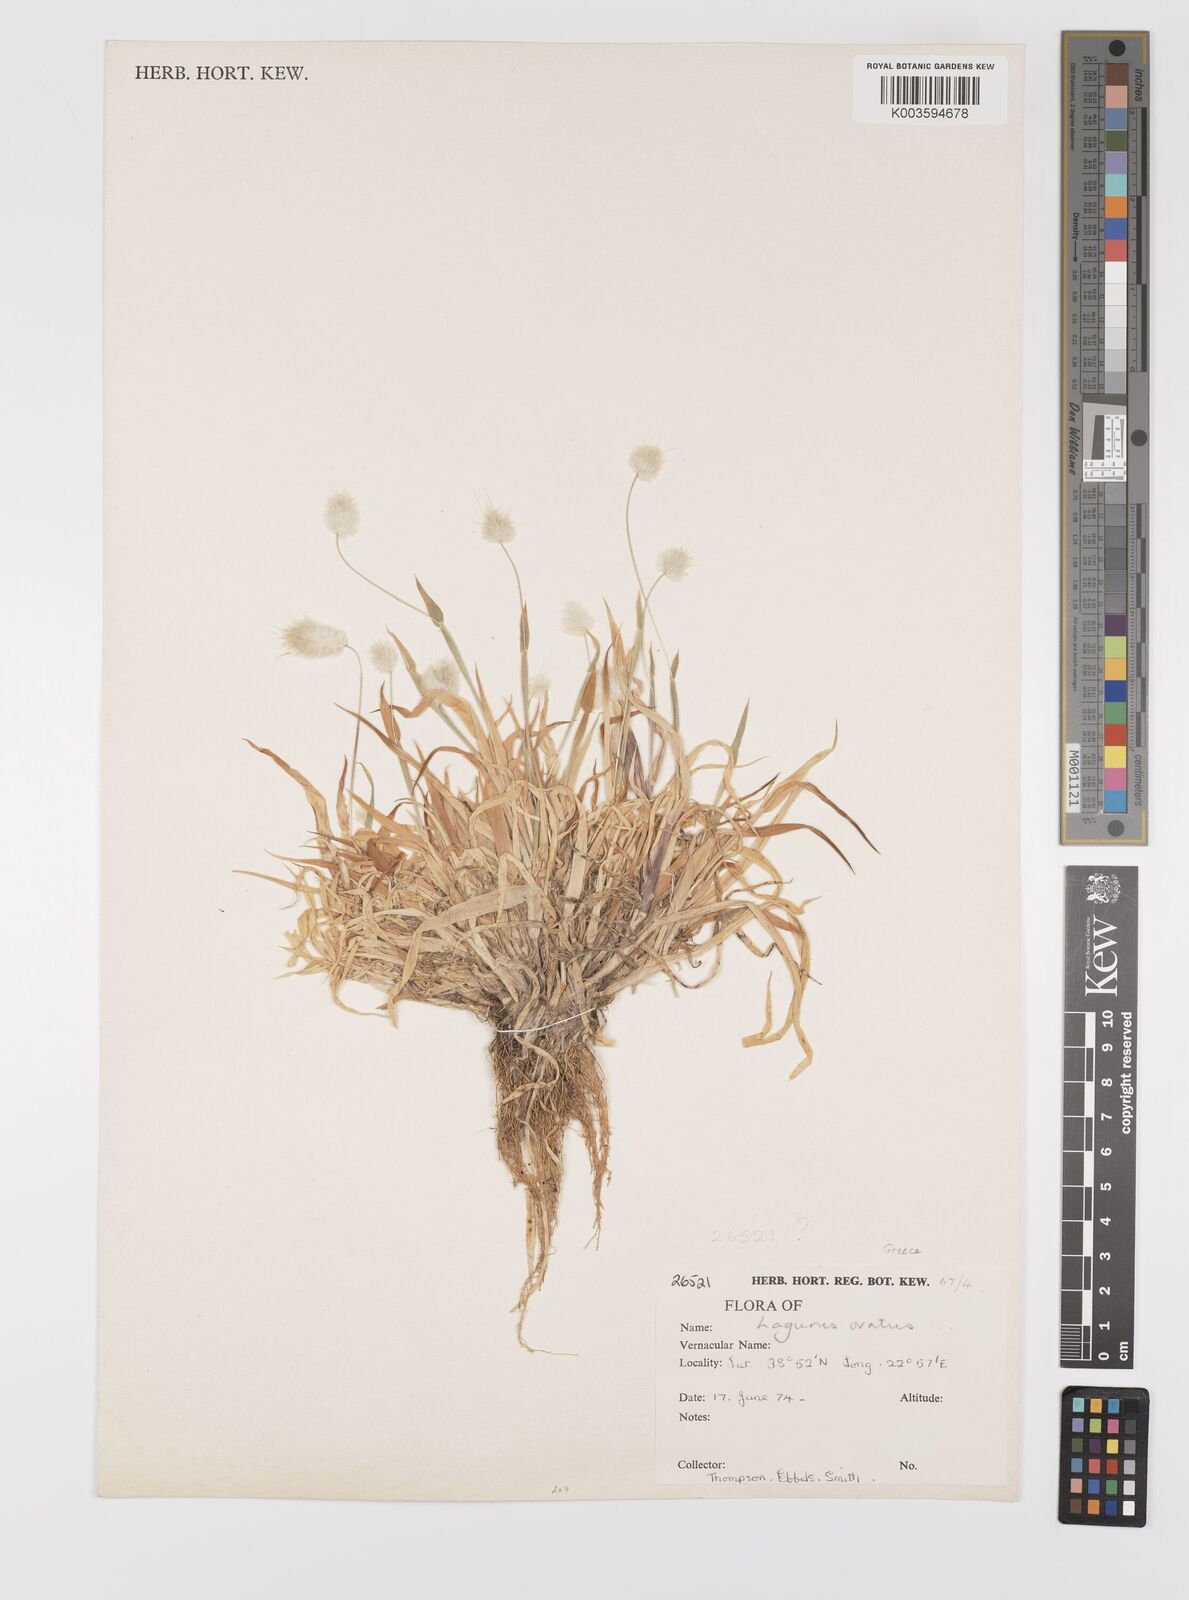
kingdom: Plantae
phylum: Tracheophyta
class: Liliopsida
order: Poales
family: Poaceae
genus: Lagurus
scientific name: Lagurus ovatus
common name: Hare's-tail
